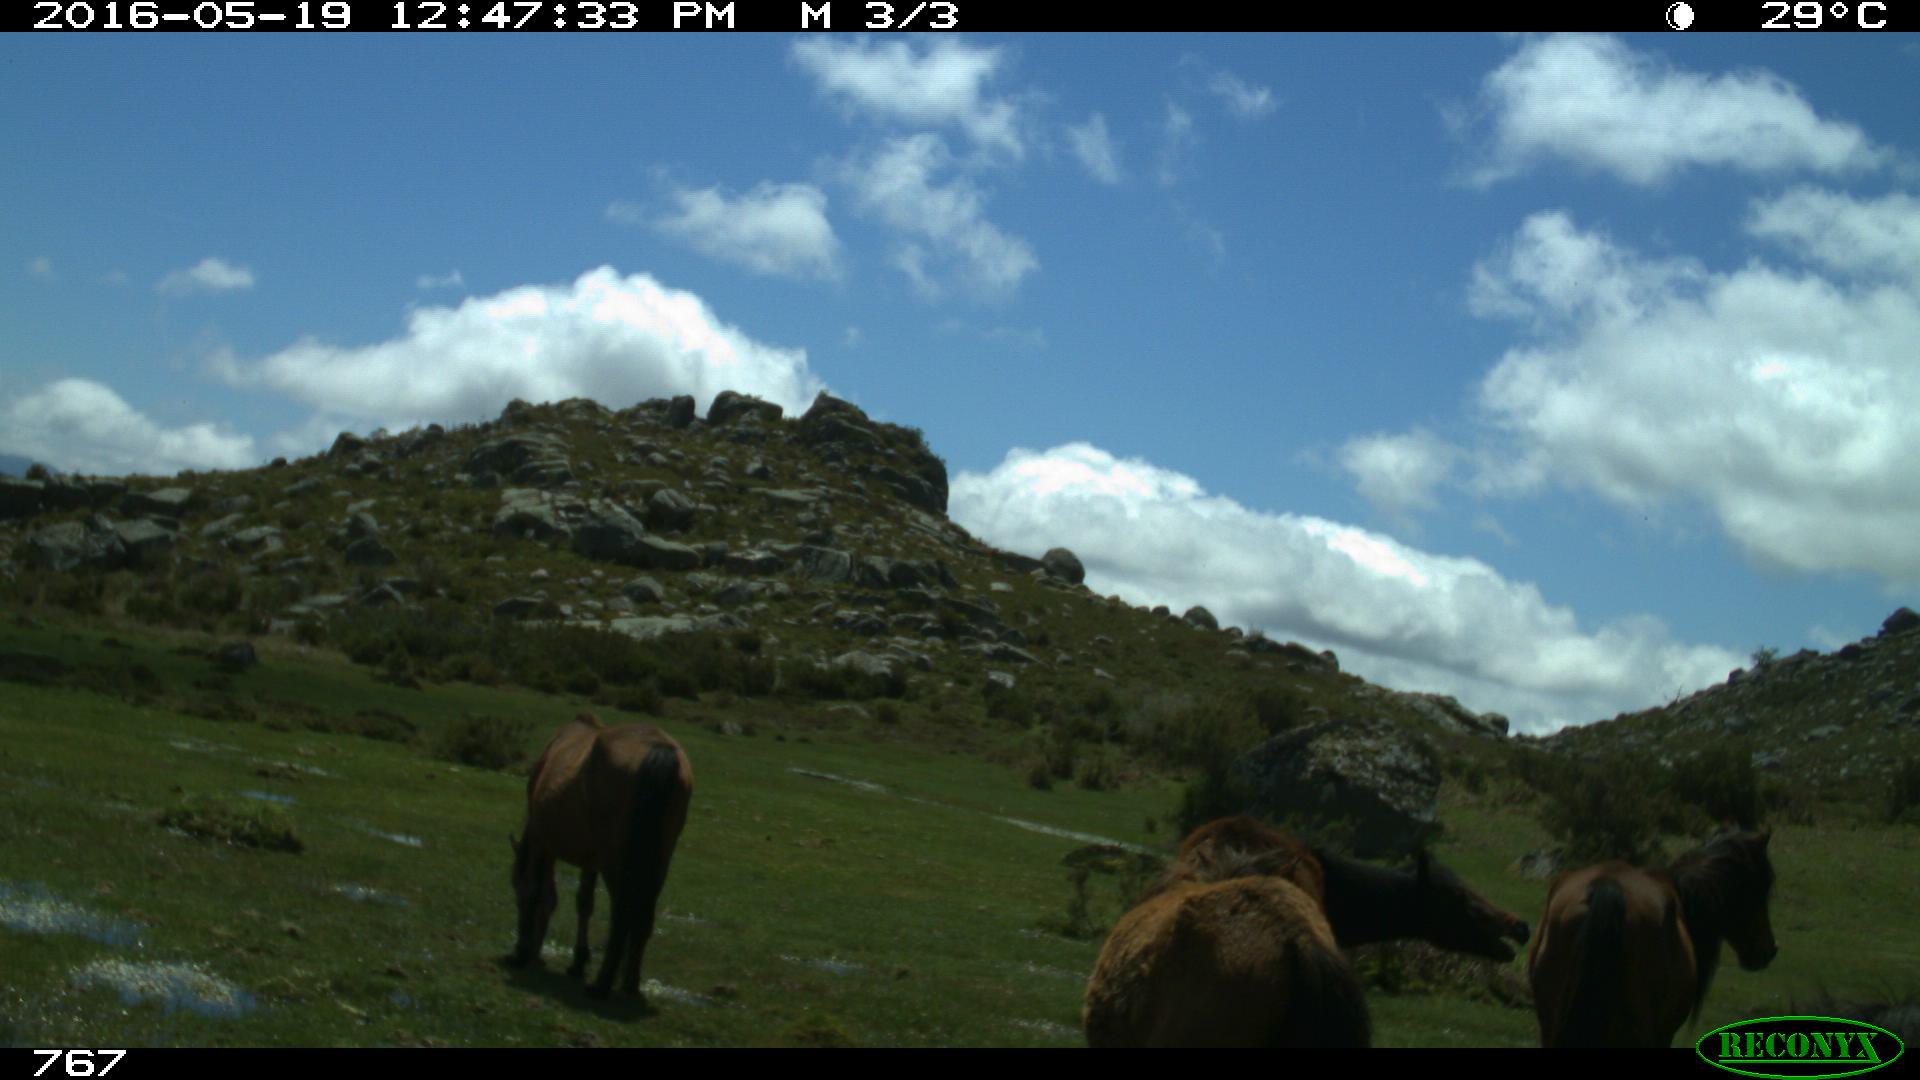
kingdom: Animalia
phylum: Chordata
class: Mammalia
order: Perissodactyla
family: Equidae
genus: Equus
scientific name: Equus caballus
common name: Horse
